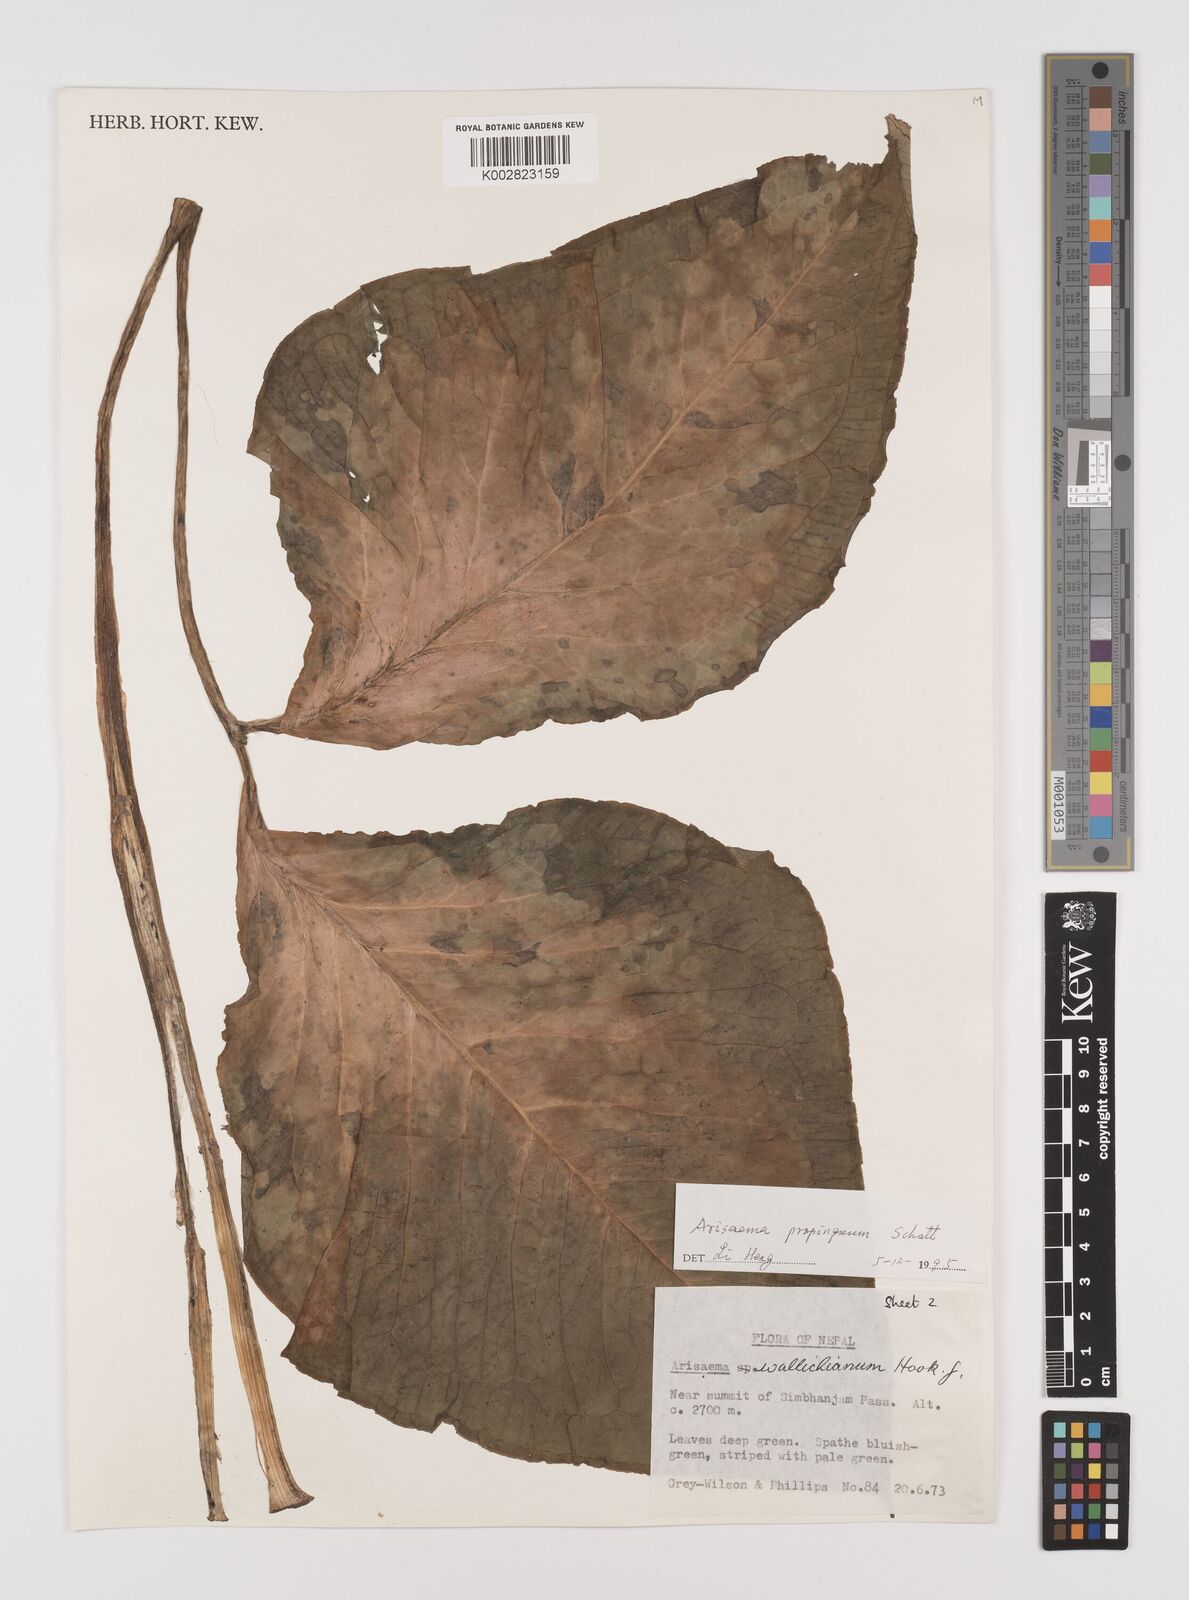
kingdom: Plantae
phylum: Tracheophyta
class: Liliopsida
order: Alismatales
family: Araceae
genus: Arisaema
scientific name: Arisaema propinquum
